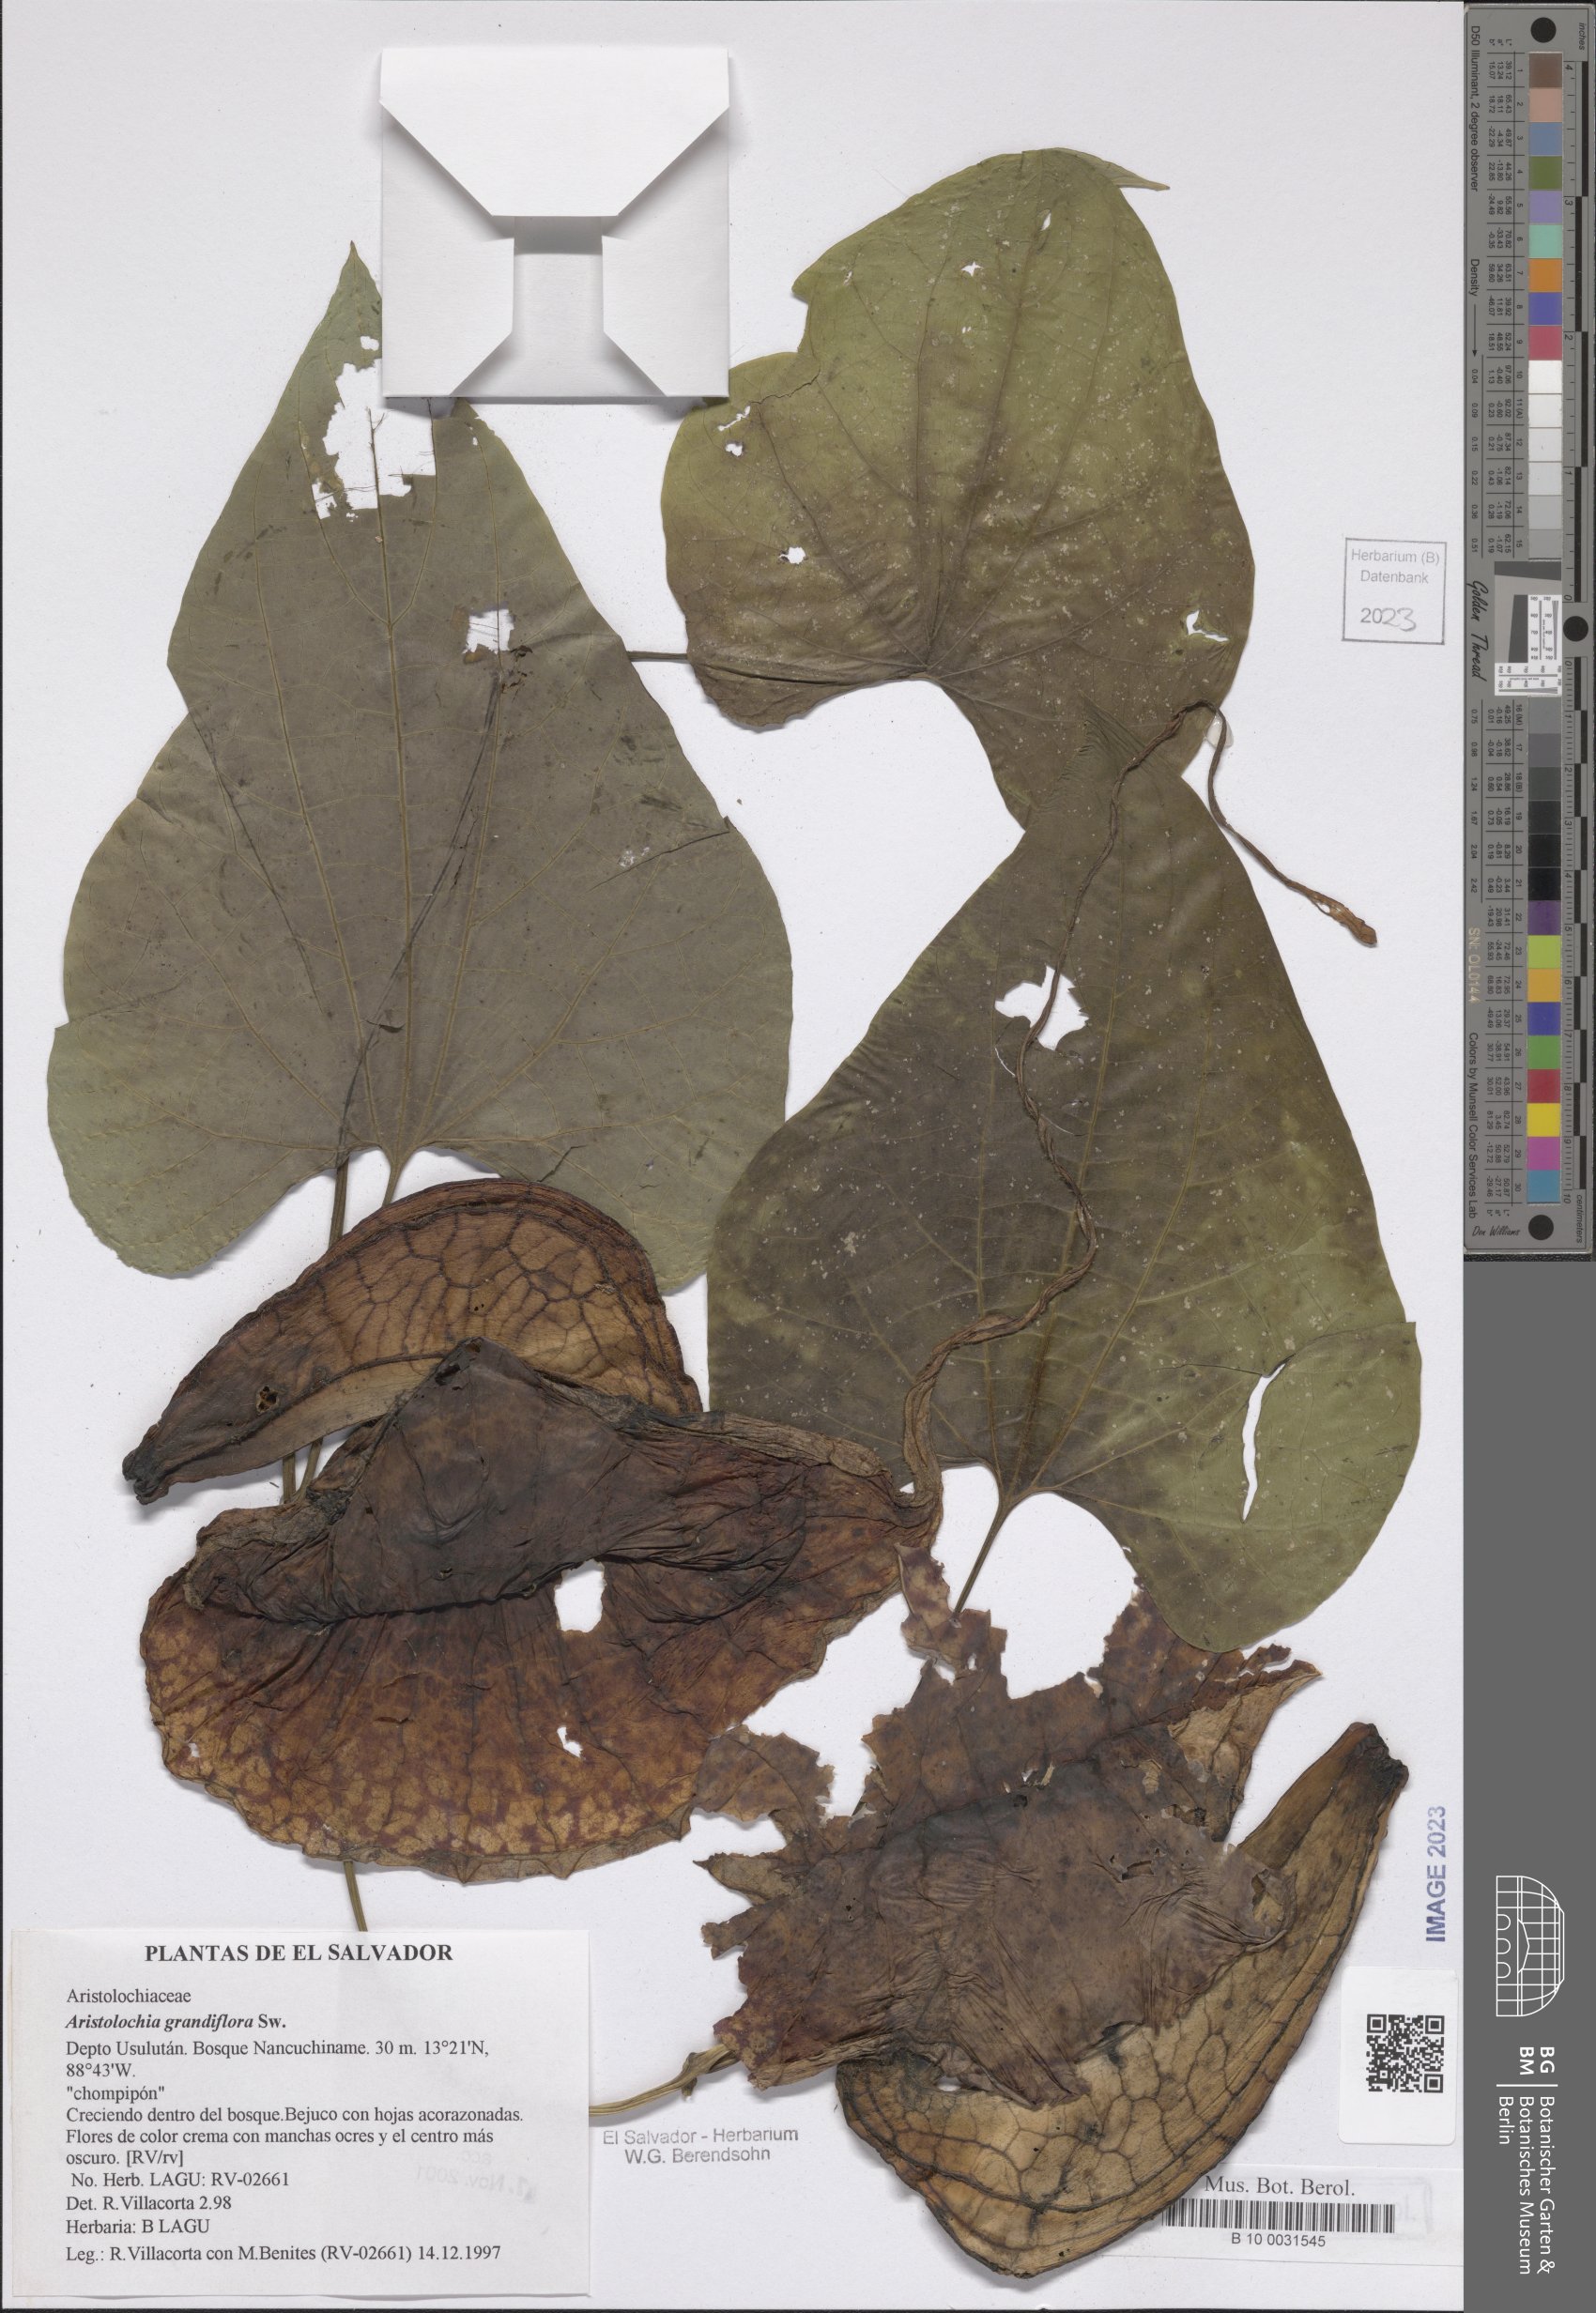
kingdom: Plantae
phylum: Tracheophyta
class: Magnoliopsida
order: Piperales
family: Aristolochiaceae
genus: Aristolochia
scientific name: Aristolochia grandiflora
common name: Pelicanflower
